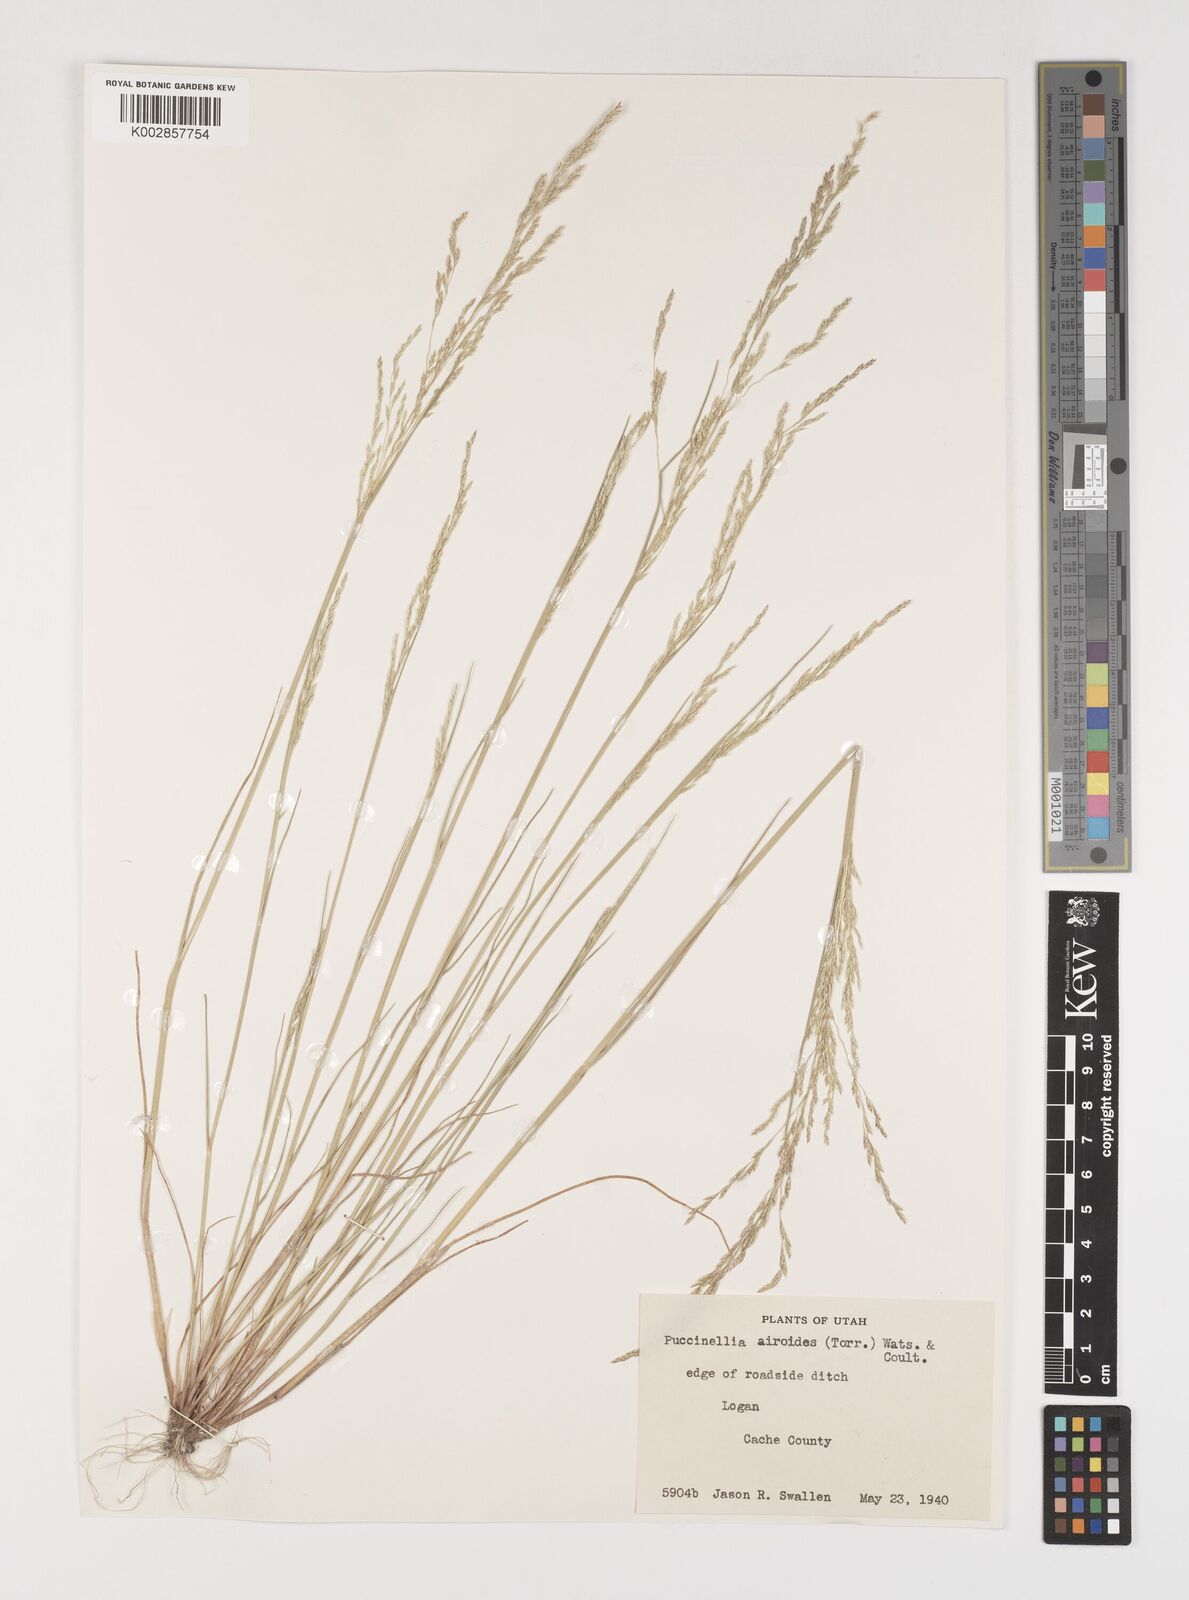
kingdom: Plantae
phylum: Tracheophyta
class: Liliopsida
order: Poales
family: Poaceae
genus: Puccinellia
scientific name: Puccinellia nuttalliana
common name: Nuttall's alkali grass
